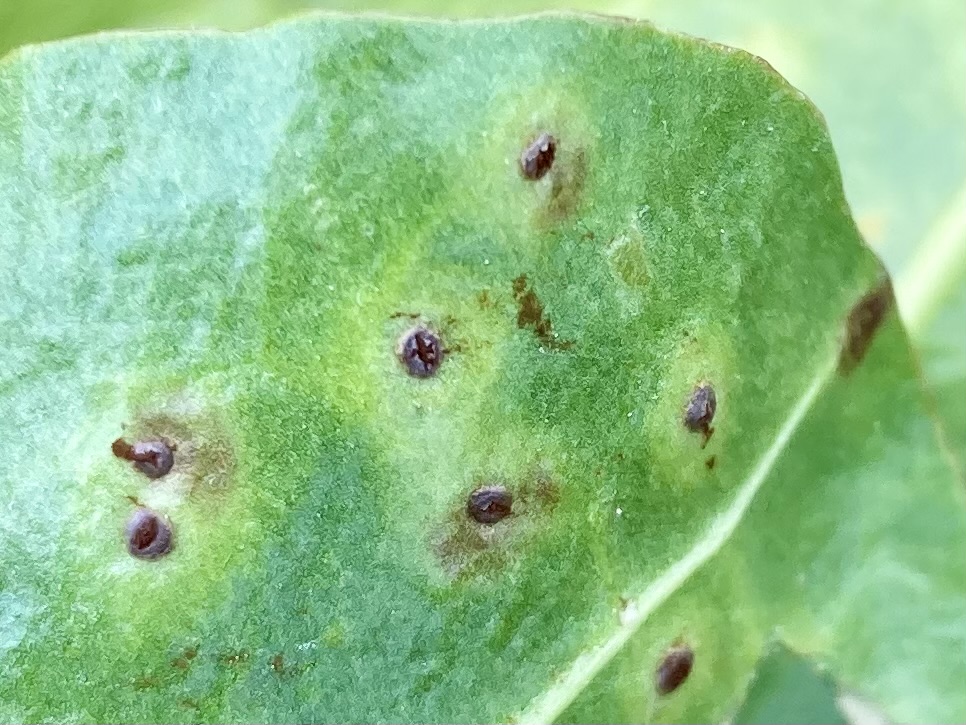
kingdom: Fungi
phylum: Basidiomycota
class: Pucciniomycetes
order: Pucciniales
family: Pucciniaceae
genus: Uromyces
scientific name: Uromyces betae
